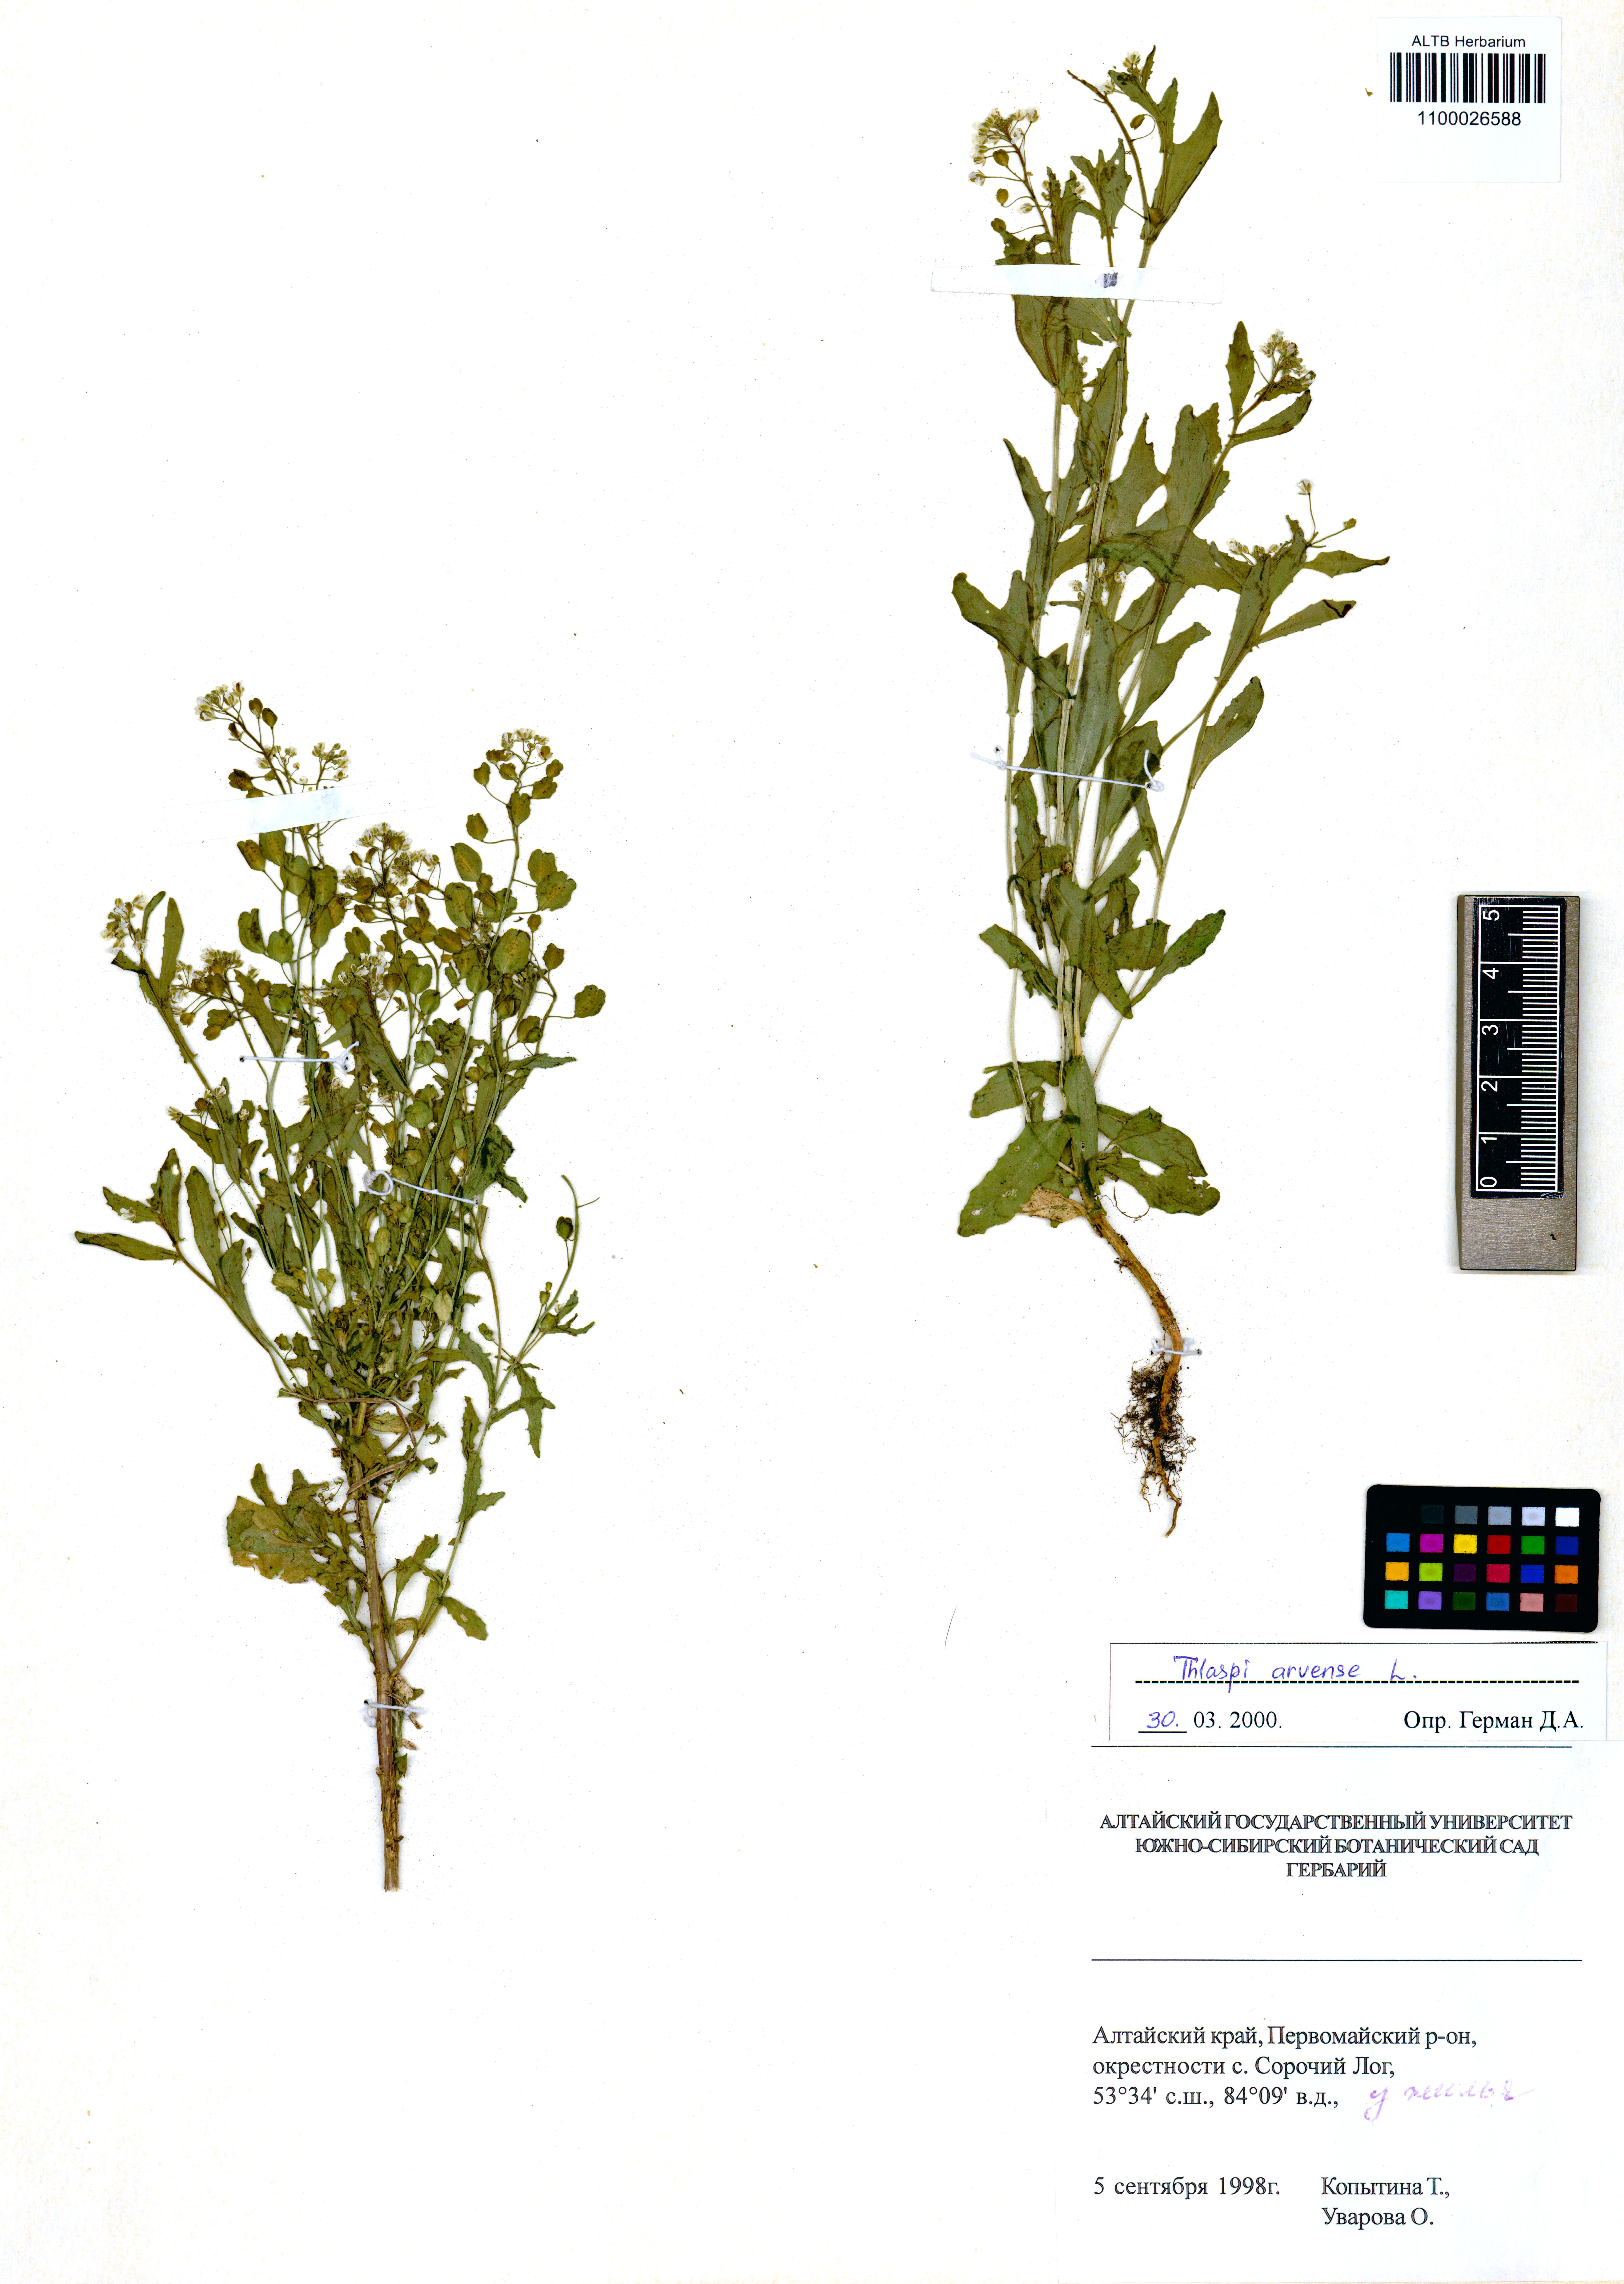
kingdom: Plantae
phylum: Tracheophyta
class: Magnoliopsida
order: Brassicales
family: Brassicaceae
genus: Thlaspi
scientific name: Thlaspi arvense
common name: Field pennycress
